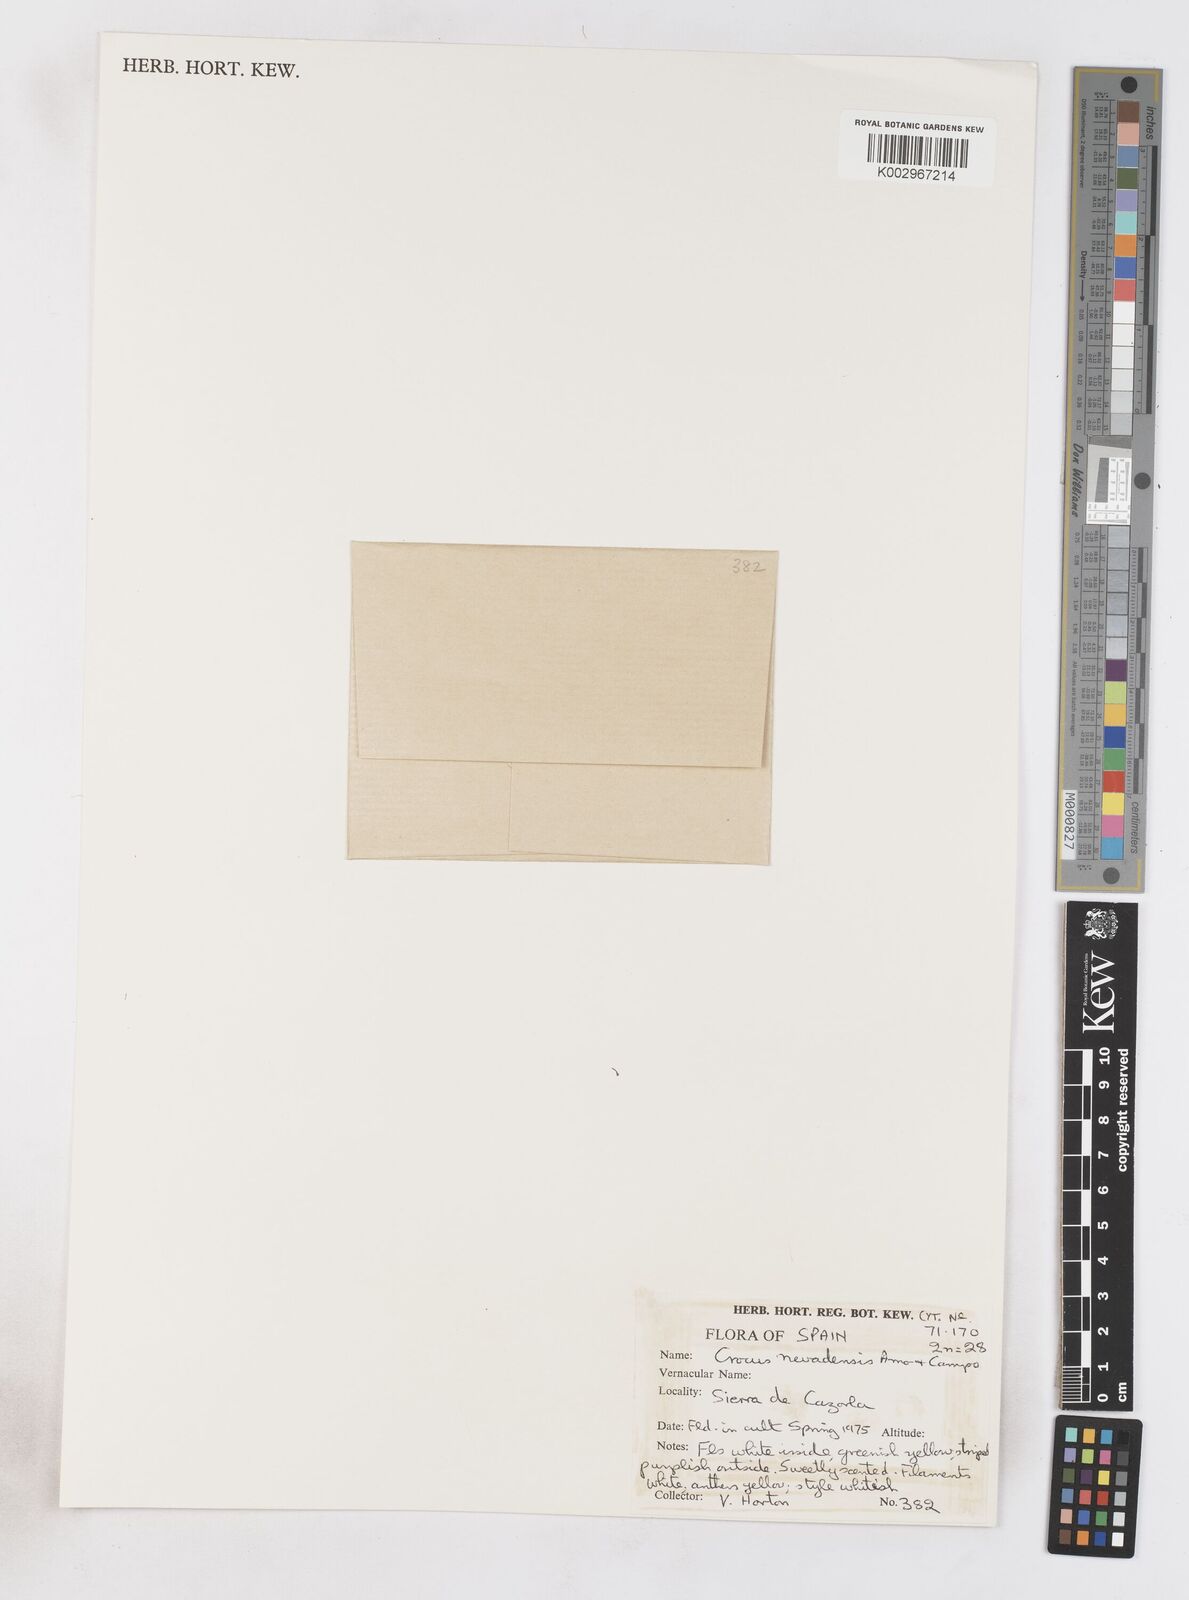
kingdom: Plantae
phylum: Tracheophyta
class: Liliopsida
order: Asparagales
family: Iridaceae
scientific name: Iridaceae
